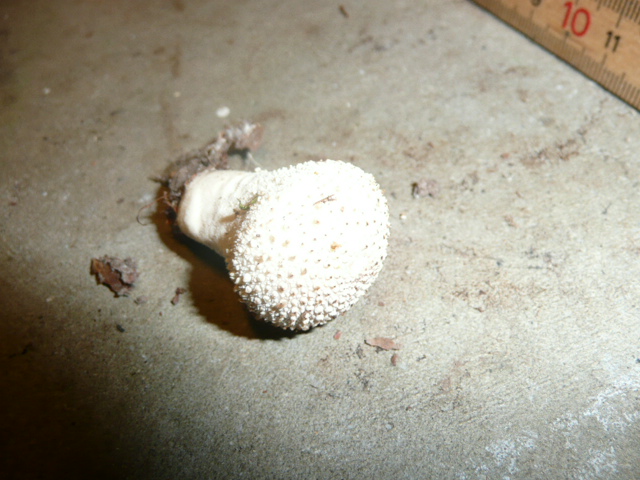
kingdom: Fungi
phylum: Basidiomycota
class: Agaricomycetes
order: Agaricales
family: Lycoperdaceae
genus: Lycoperdon
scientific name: Lycoperdon perlatum
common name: krystal-støvbold
